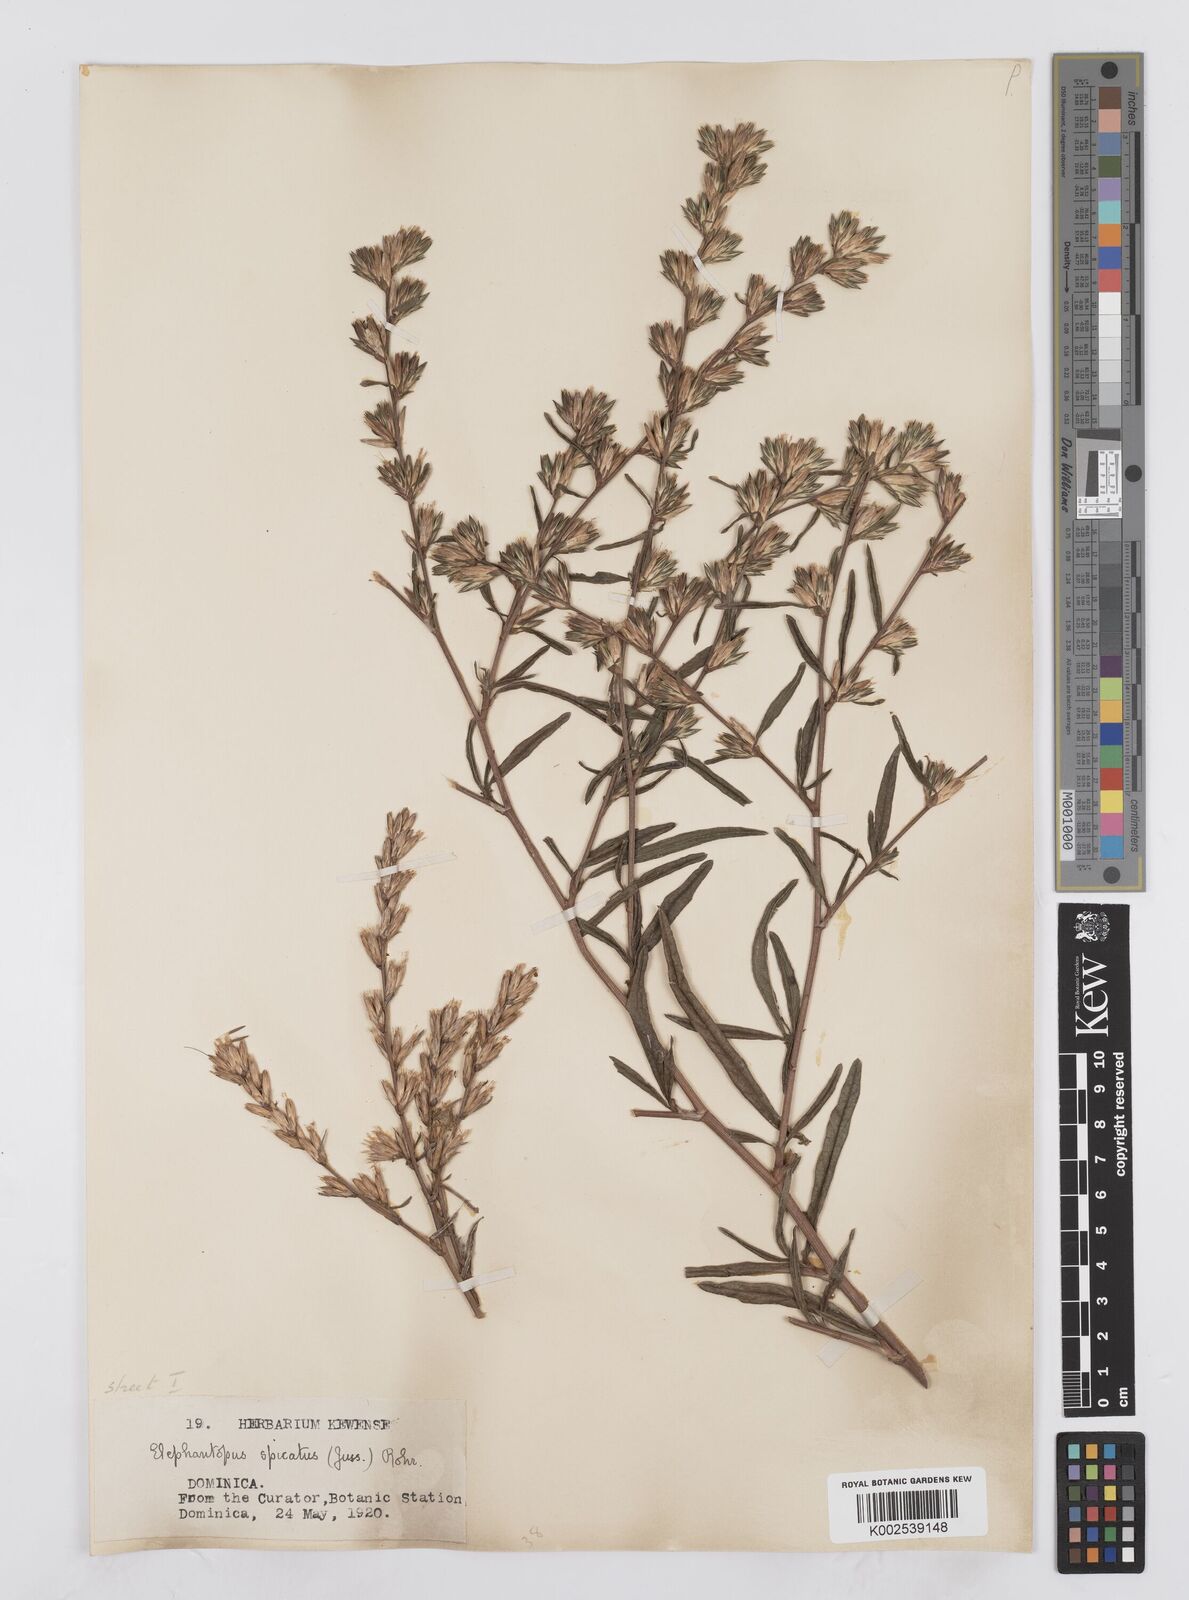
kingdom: Plantae
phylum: Tracheophyta
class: Magnoliopsida
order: Asterales
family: Asteraceae
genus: Pseudelephantopus
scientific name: Pseudelephantopus spicatus
